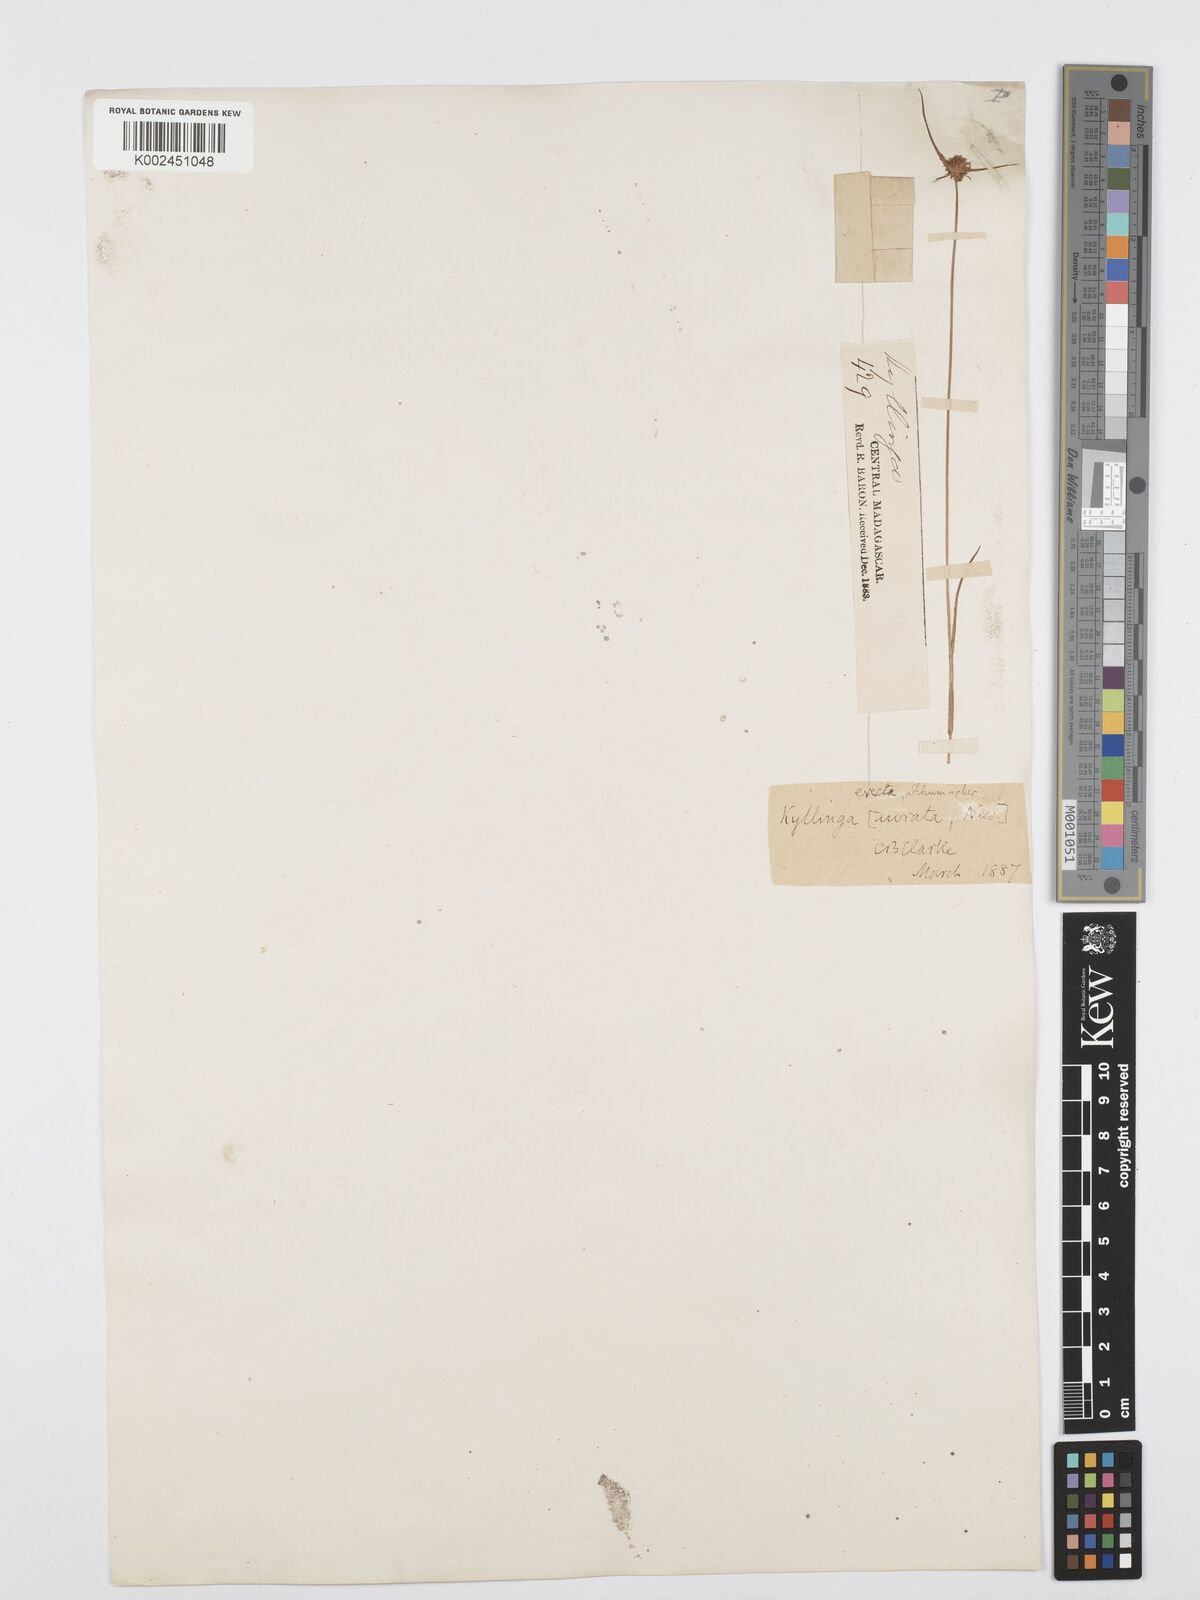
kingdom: Plantae
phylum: Tracheophyta
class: Liliopsida
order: Poales
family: Cyperaceae
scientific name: Cyperaceae
